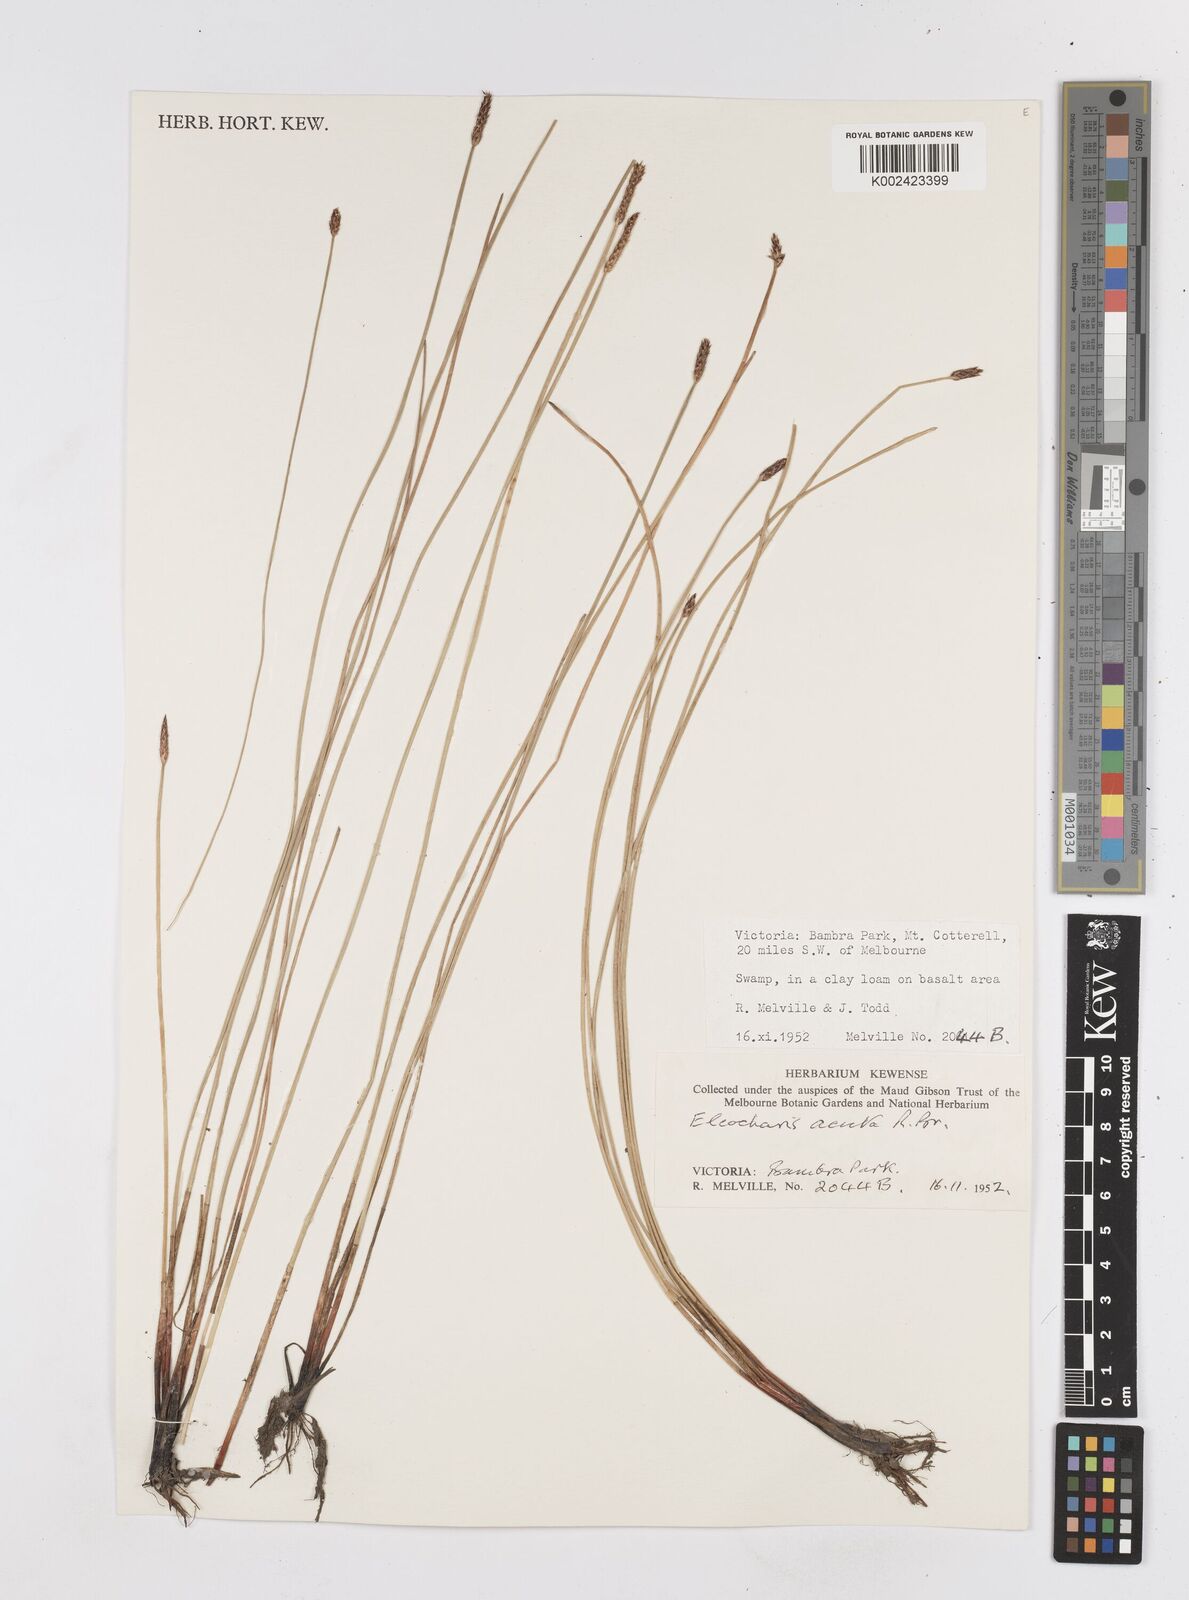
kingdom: Plantae
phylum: Tracheophyta
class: Liliopsida
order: Poales
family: Cyperaceae
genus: Eleocharis
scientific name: Eleocharis acuta
